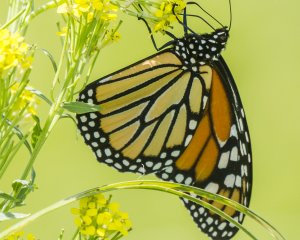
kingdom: Animalia
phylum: Arthropoda
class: Insecta
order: Lepidoptera
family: Nymphalidae
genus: Danaus
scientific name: Danaus plexippus
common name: Monarch
